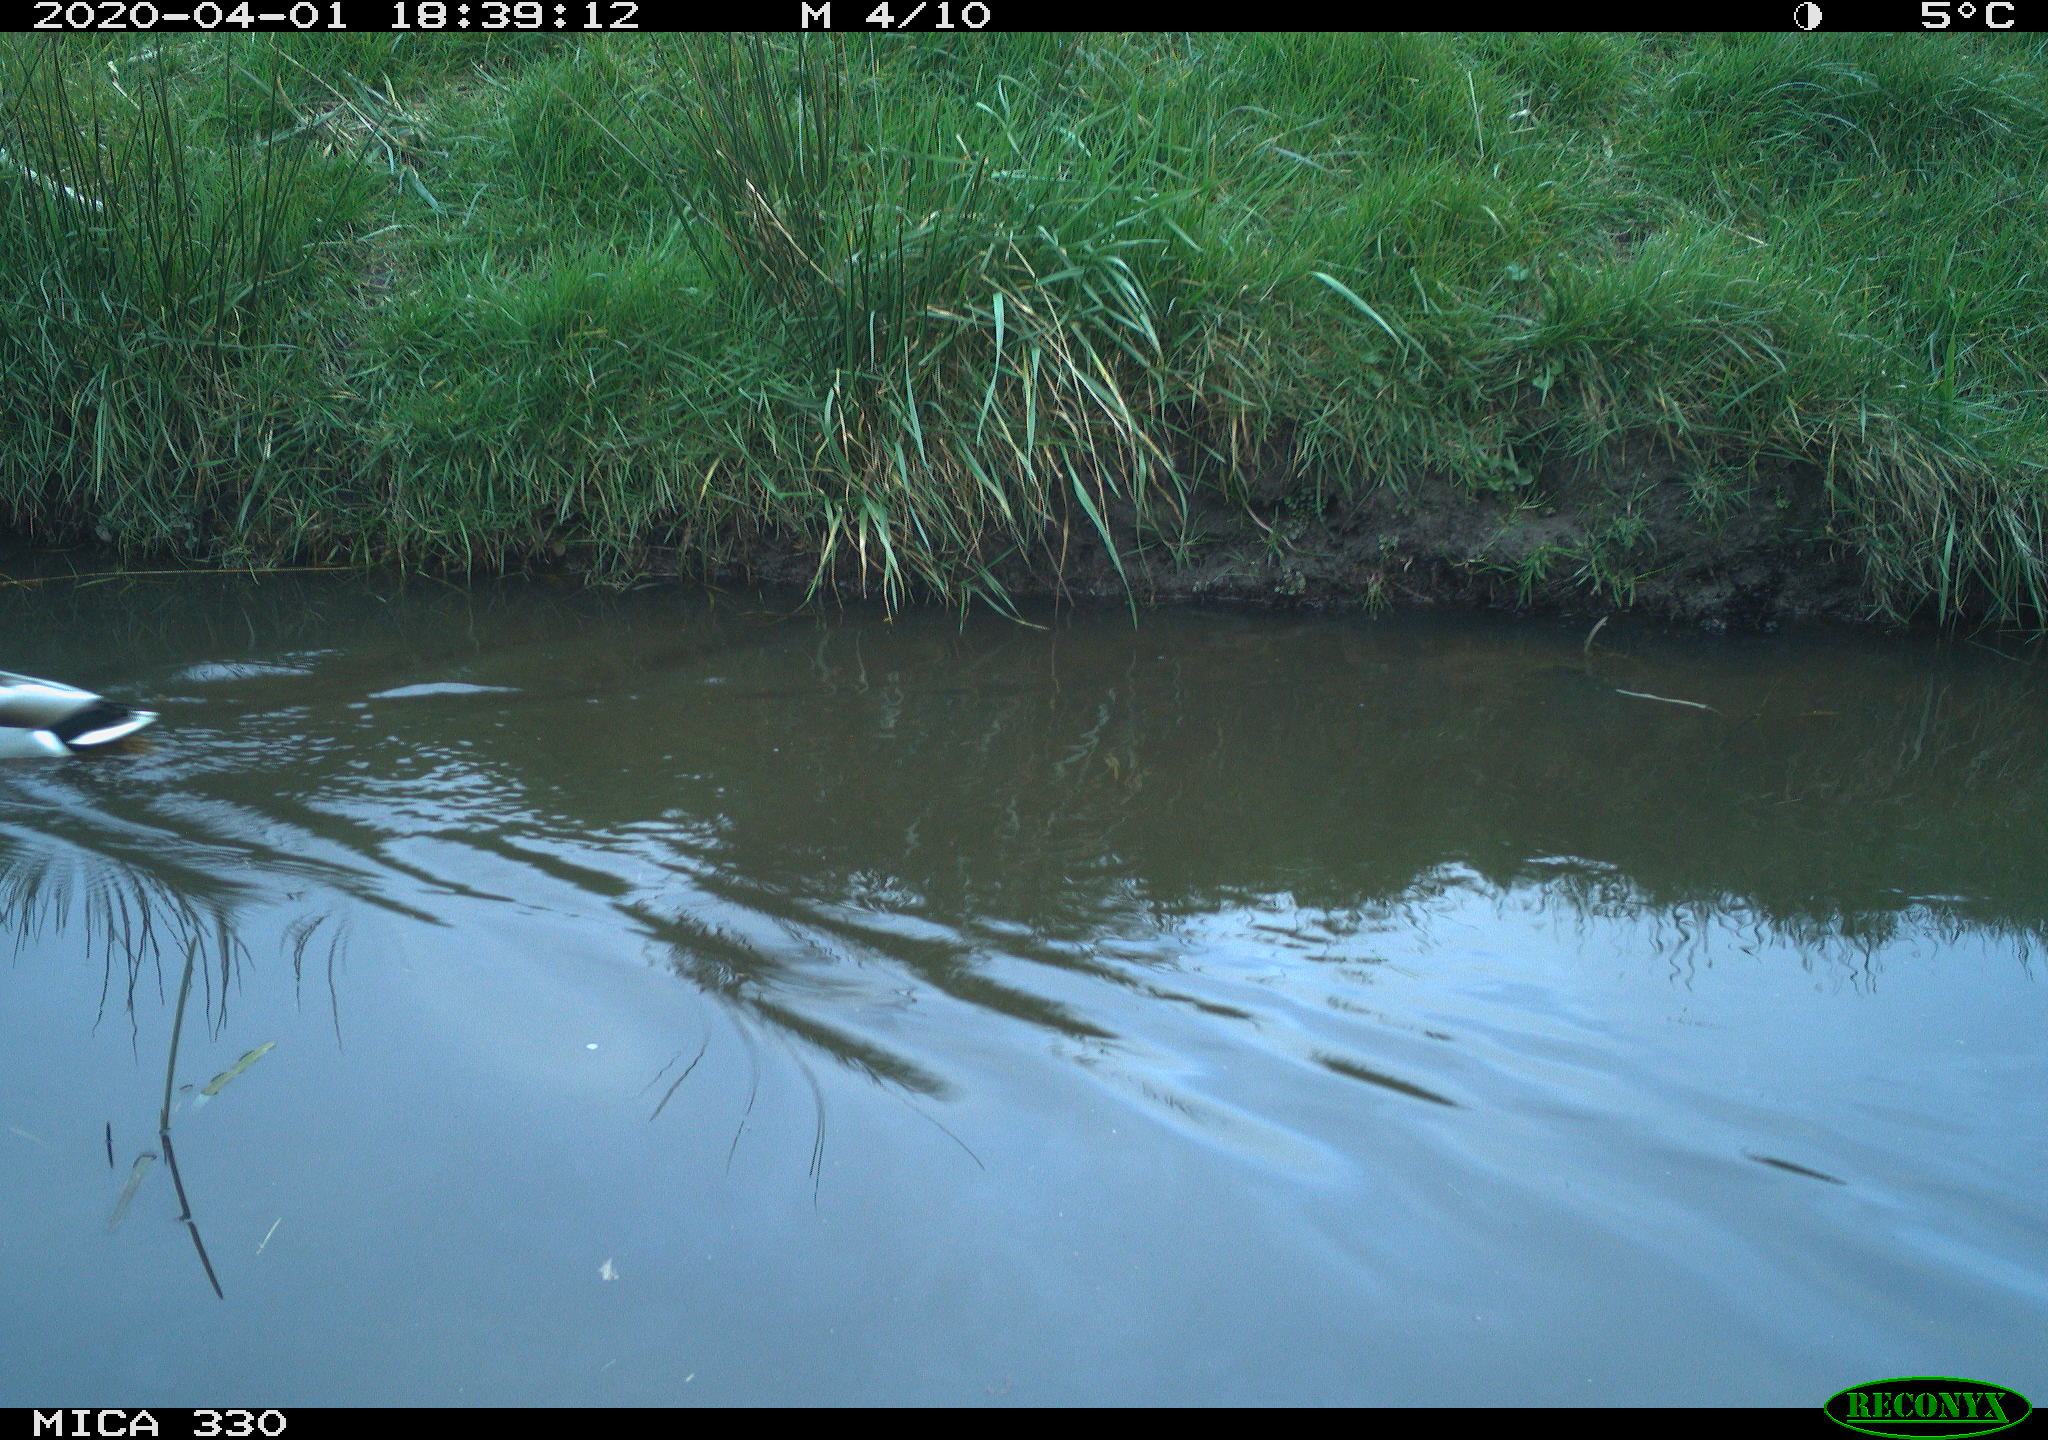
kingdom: Animalia
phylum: Chordata
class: Aves
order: Anseriformes
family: Anatidae
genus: Anas
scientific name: Anas platyrhynchos
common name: Mallard
